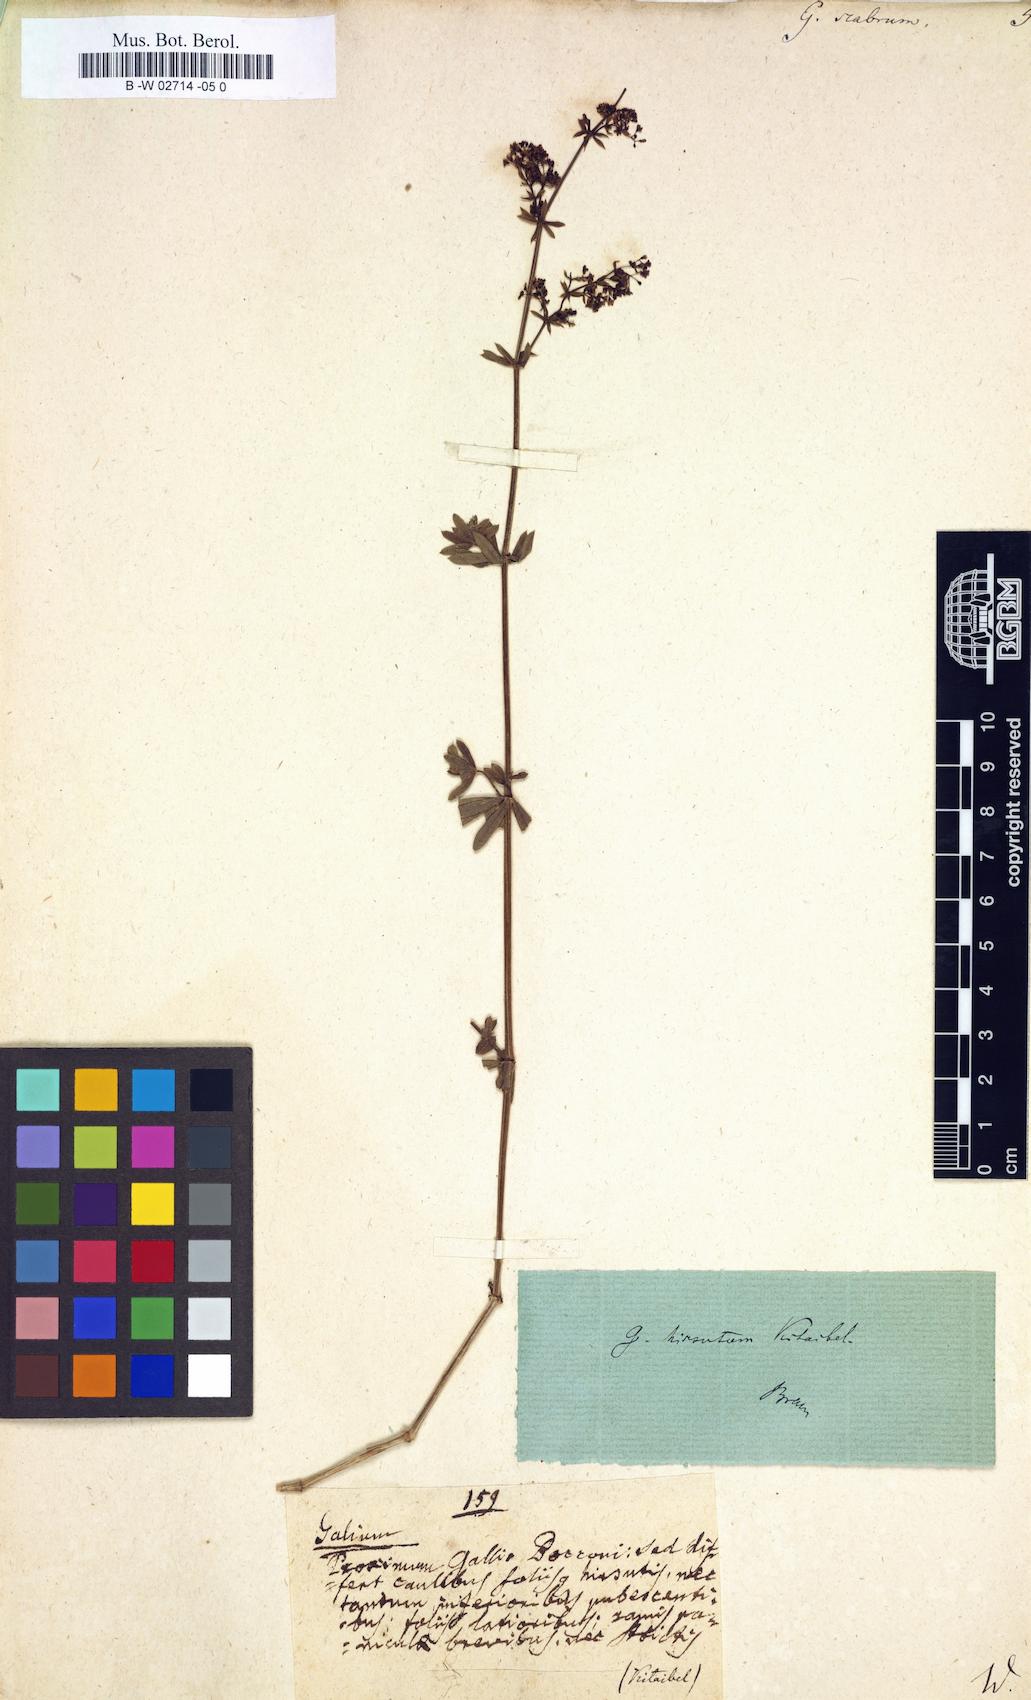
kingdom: Plantae
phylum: Tracheophyta
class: Magnoliopsida
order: Gentianales
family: Rubiaceae
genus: Galium
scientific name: Galium scabrum
